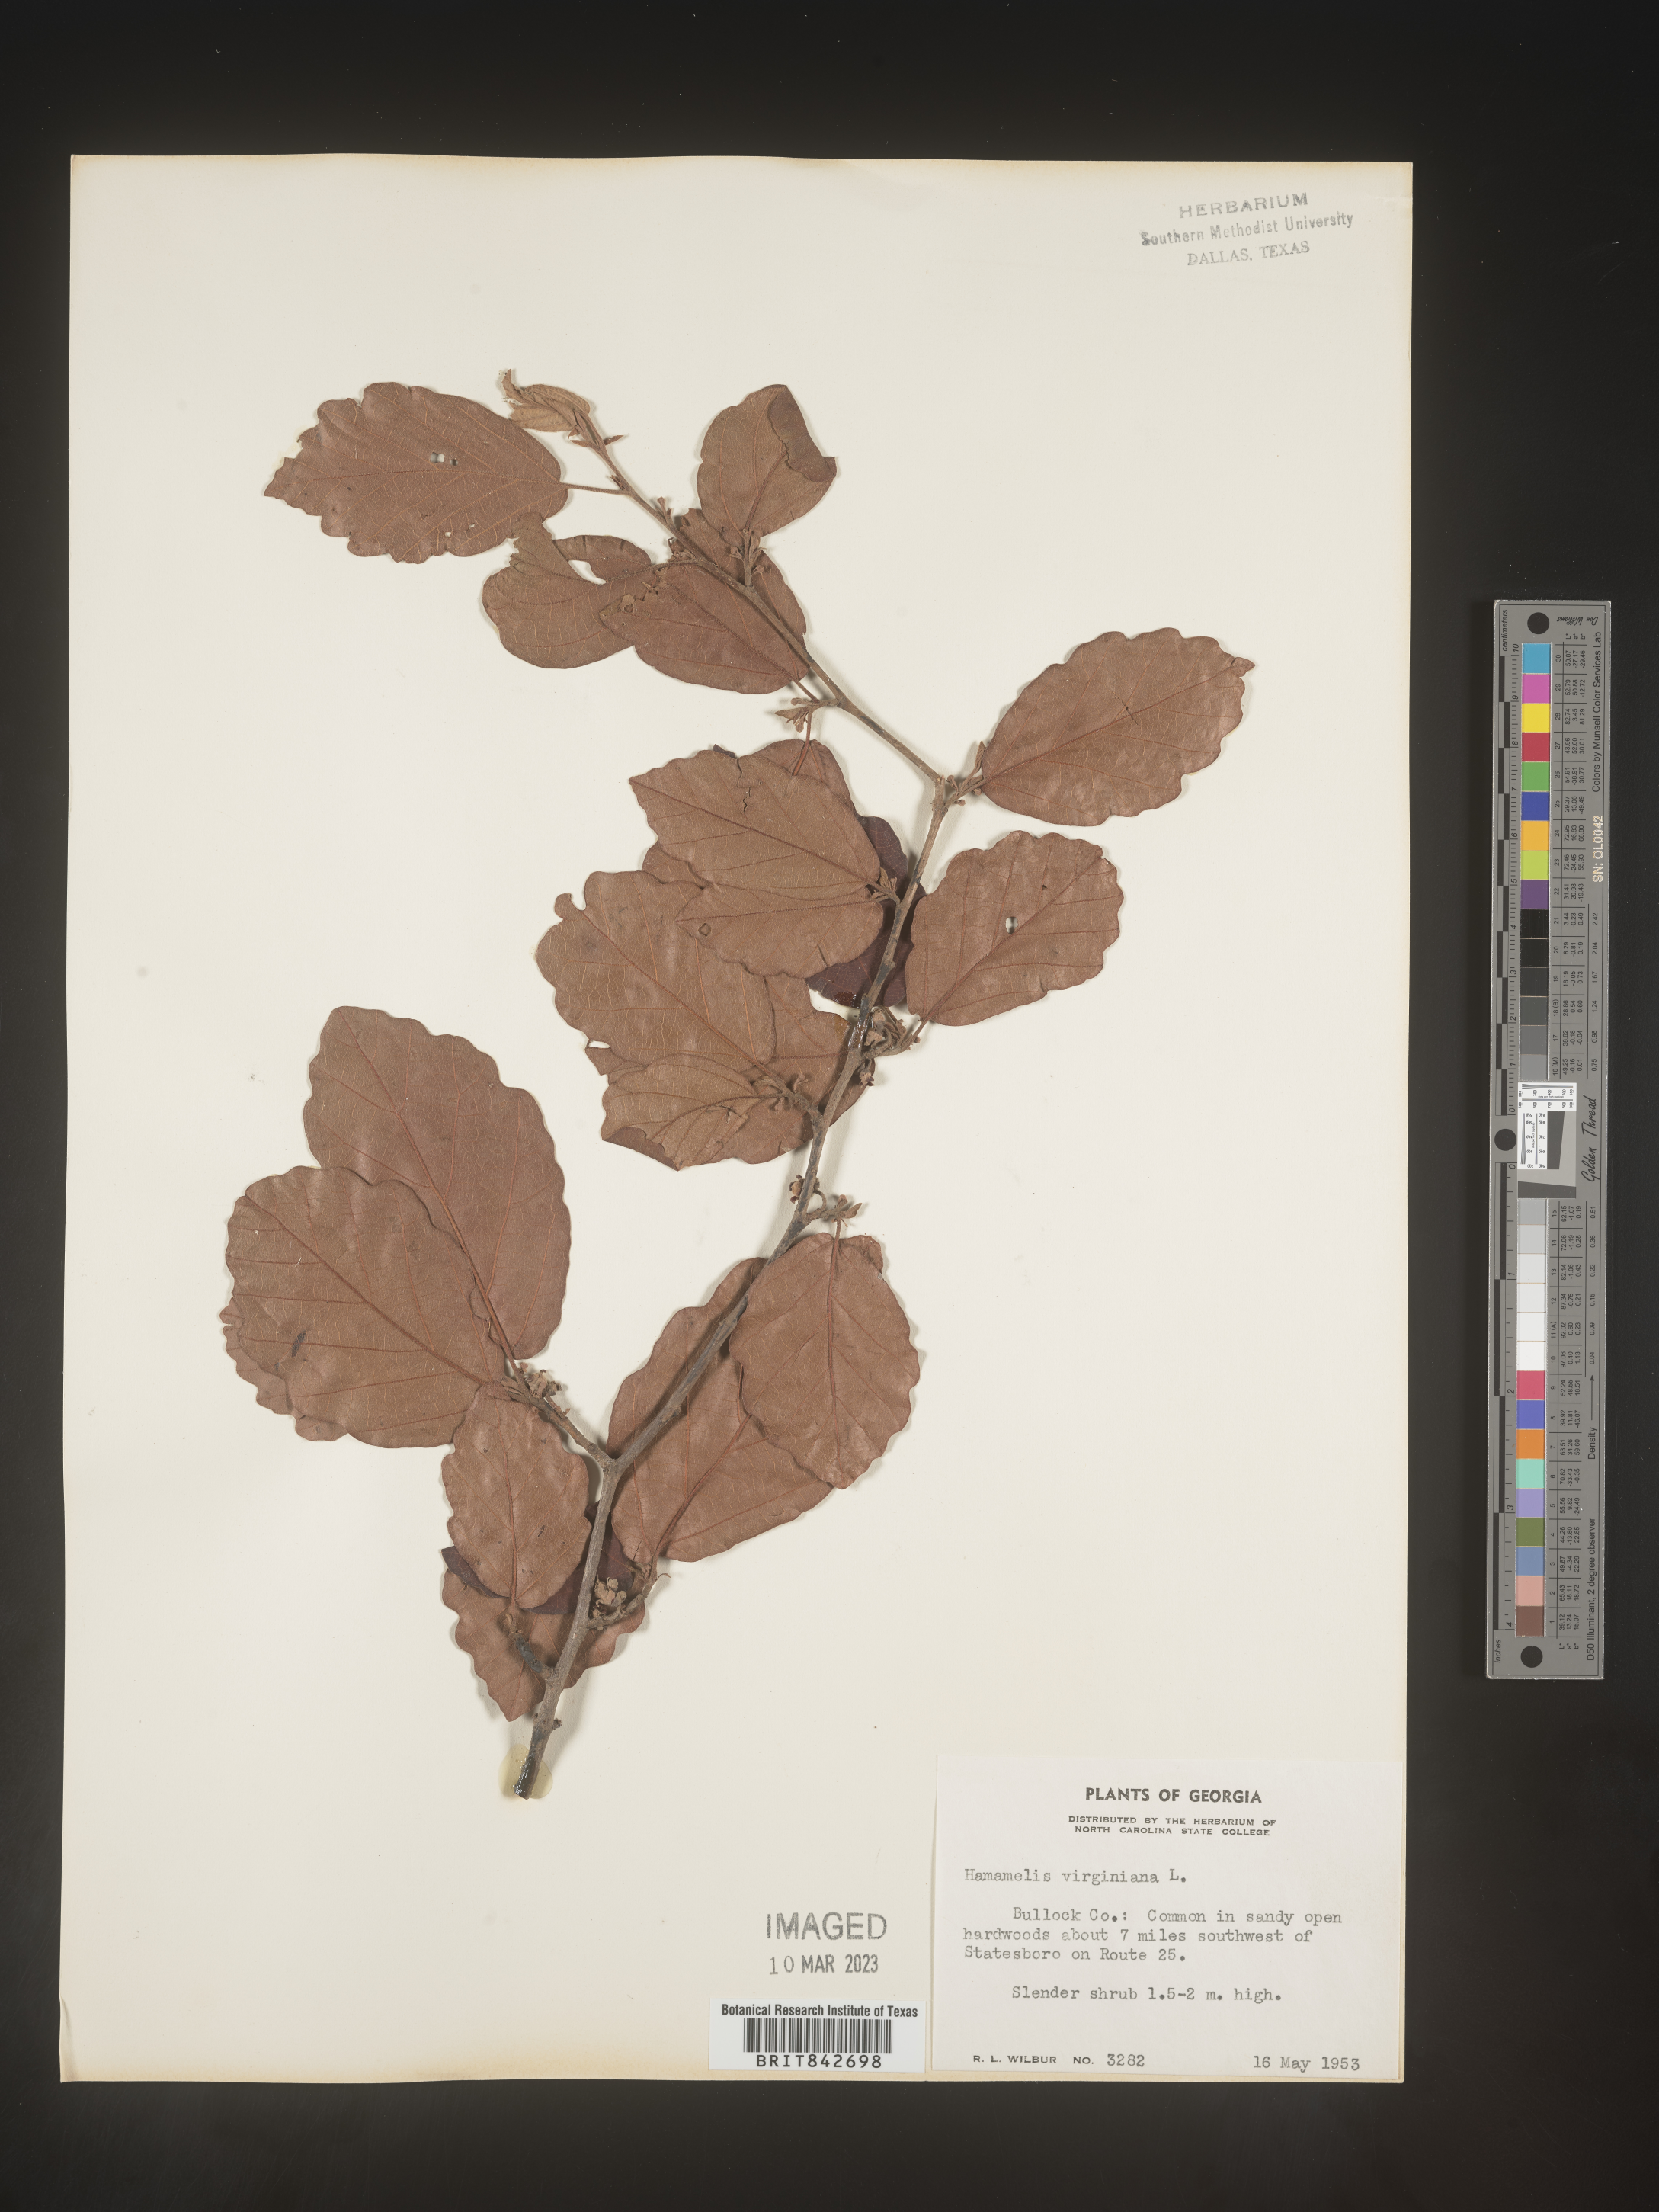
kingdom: Plantae
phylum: Tracheophyta
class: Magnoliopsida
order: Saxifragales
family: Hamamelidaceae
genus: Hamamelis
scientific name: Hamamelis virginiana
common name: Witch-hazel
